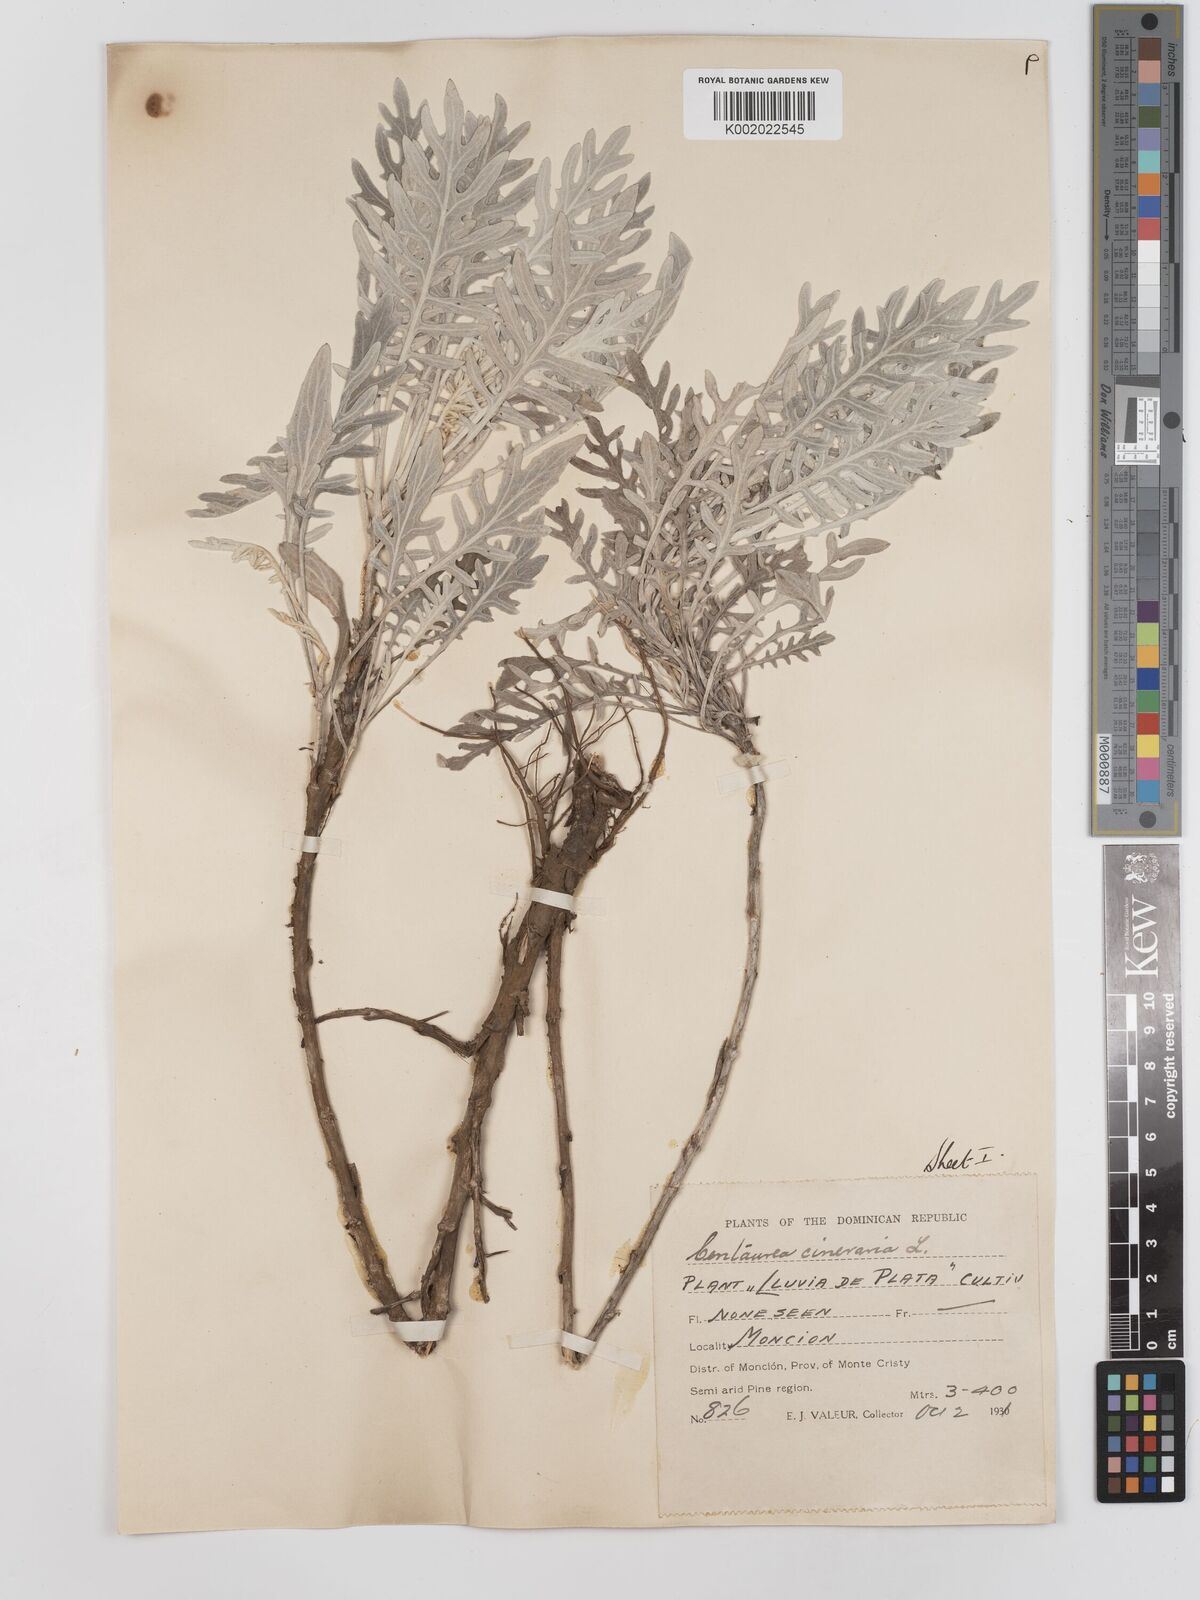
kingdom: Plantae
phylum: Tracheophyta
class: Magnoliopsida
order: Asterales
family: Asteraceae
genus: Centaurea
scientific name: Centaurea cineraria
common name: Dusty miller
